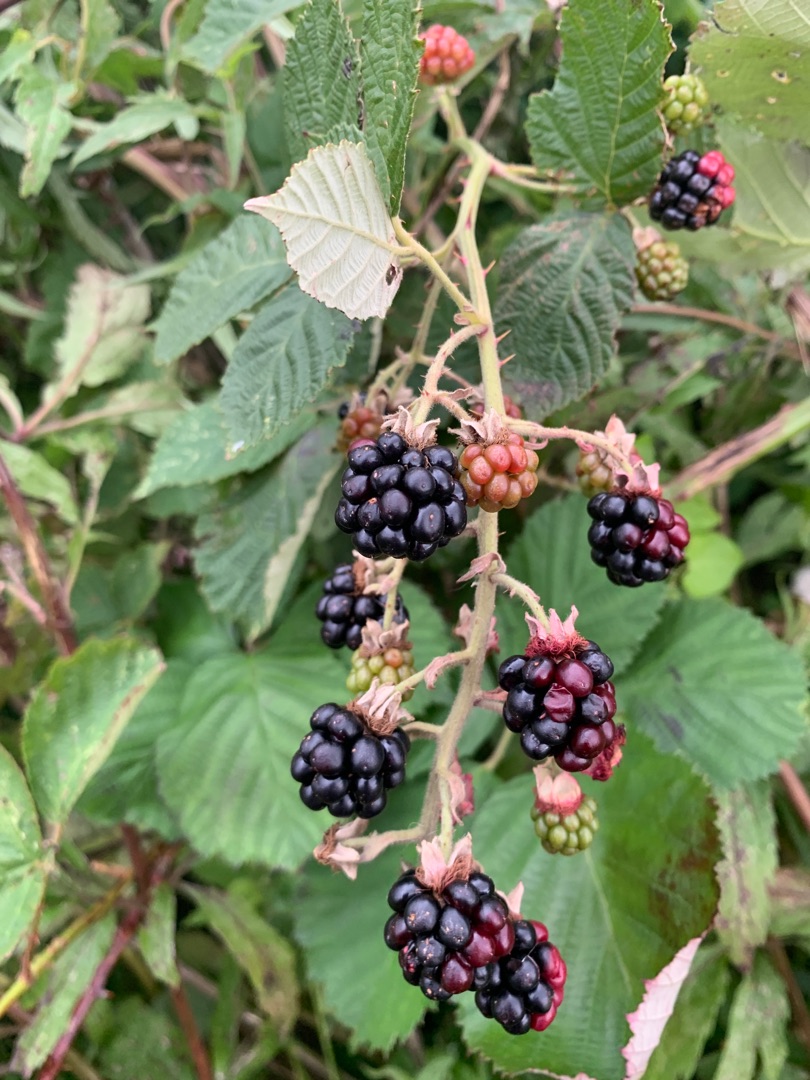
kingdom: Plantae
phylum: Tracheophyta
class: Magnoliopsida
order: Rosales
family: Rosaceae
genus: Rubus
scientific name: Rubus armeniacus
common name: Armensk brombær
